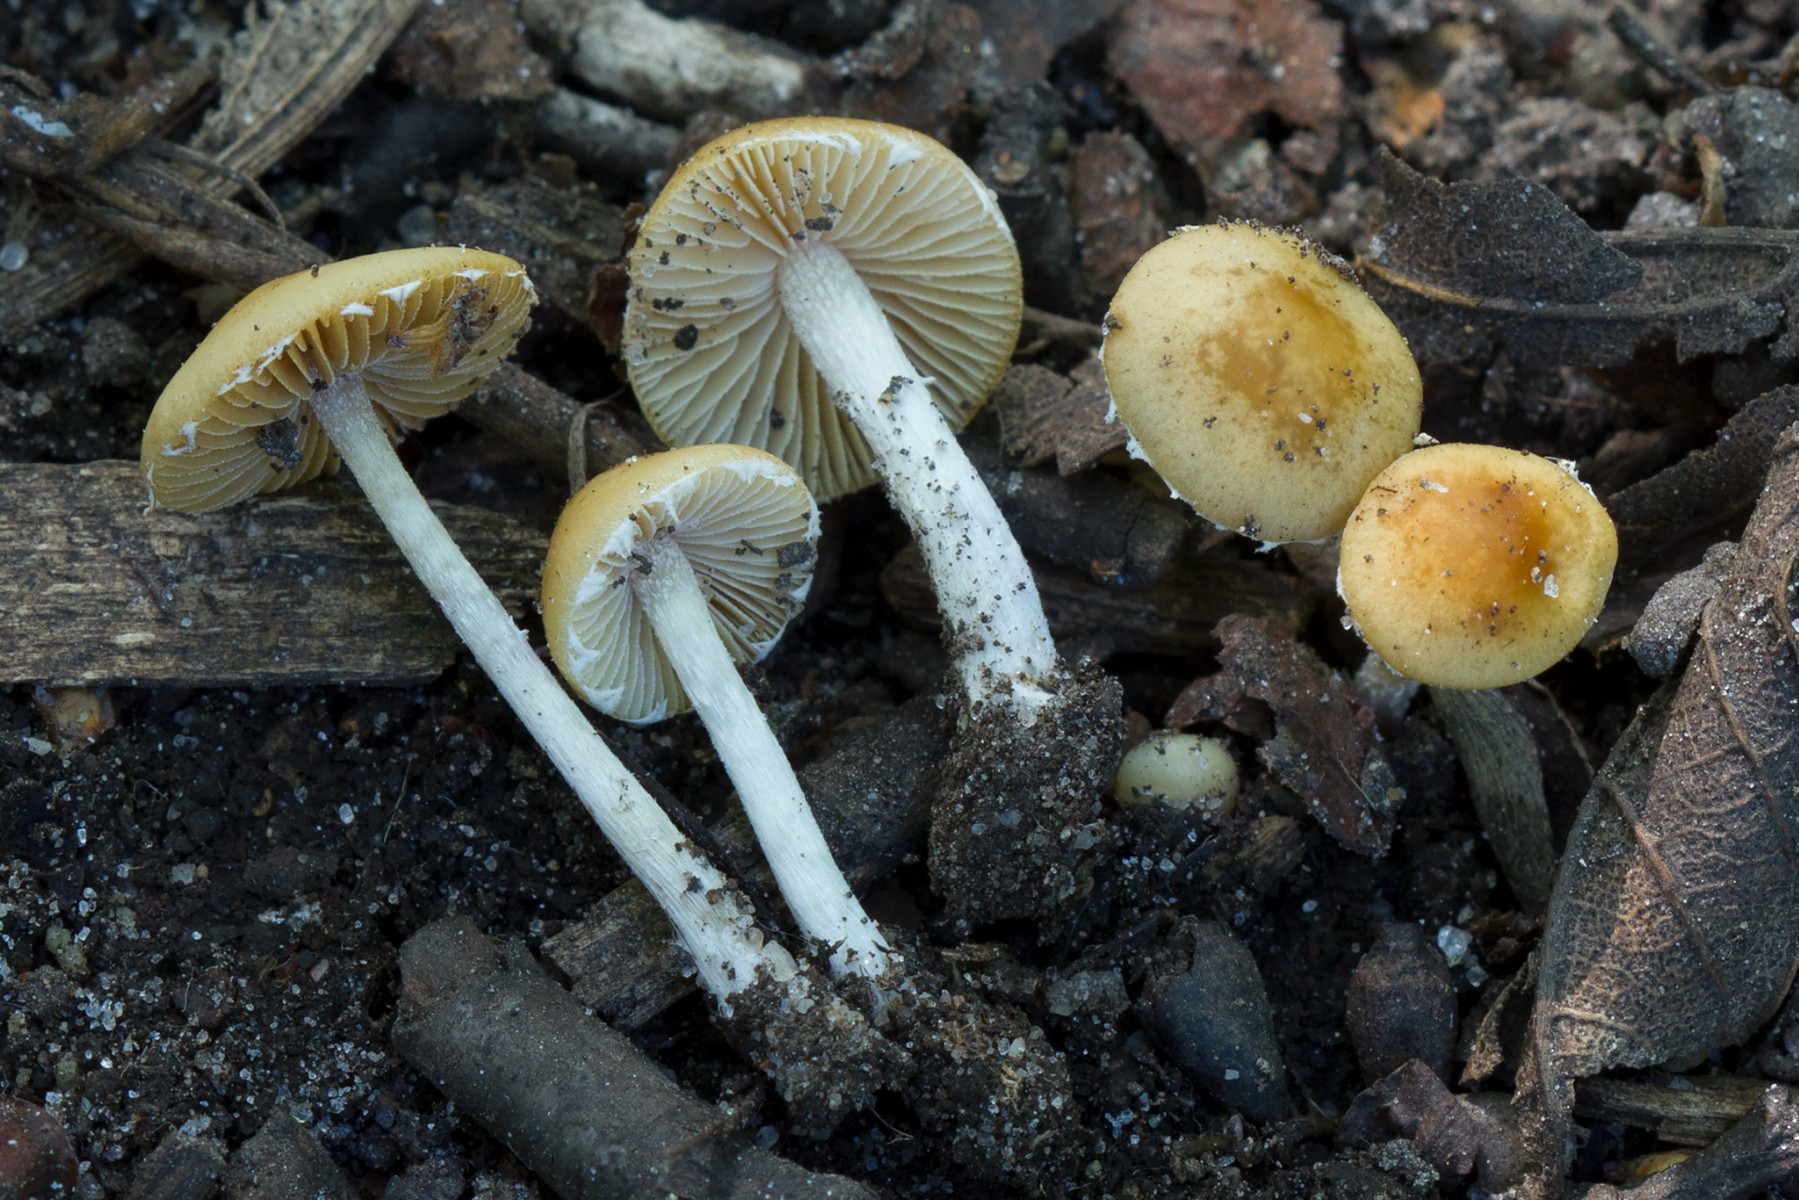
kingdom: Fungi
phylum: Basidiomycota
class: Agaricomycetes
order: Agaricales
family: Bolbitiaceae
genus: Conocybe
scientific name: Conocybe velata
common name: tandet dansehat
